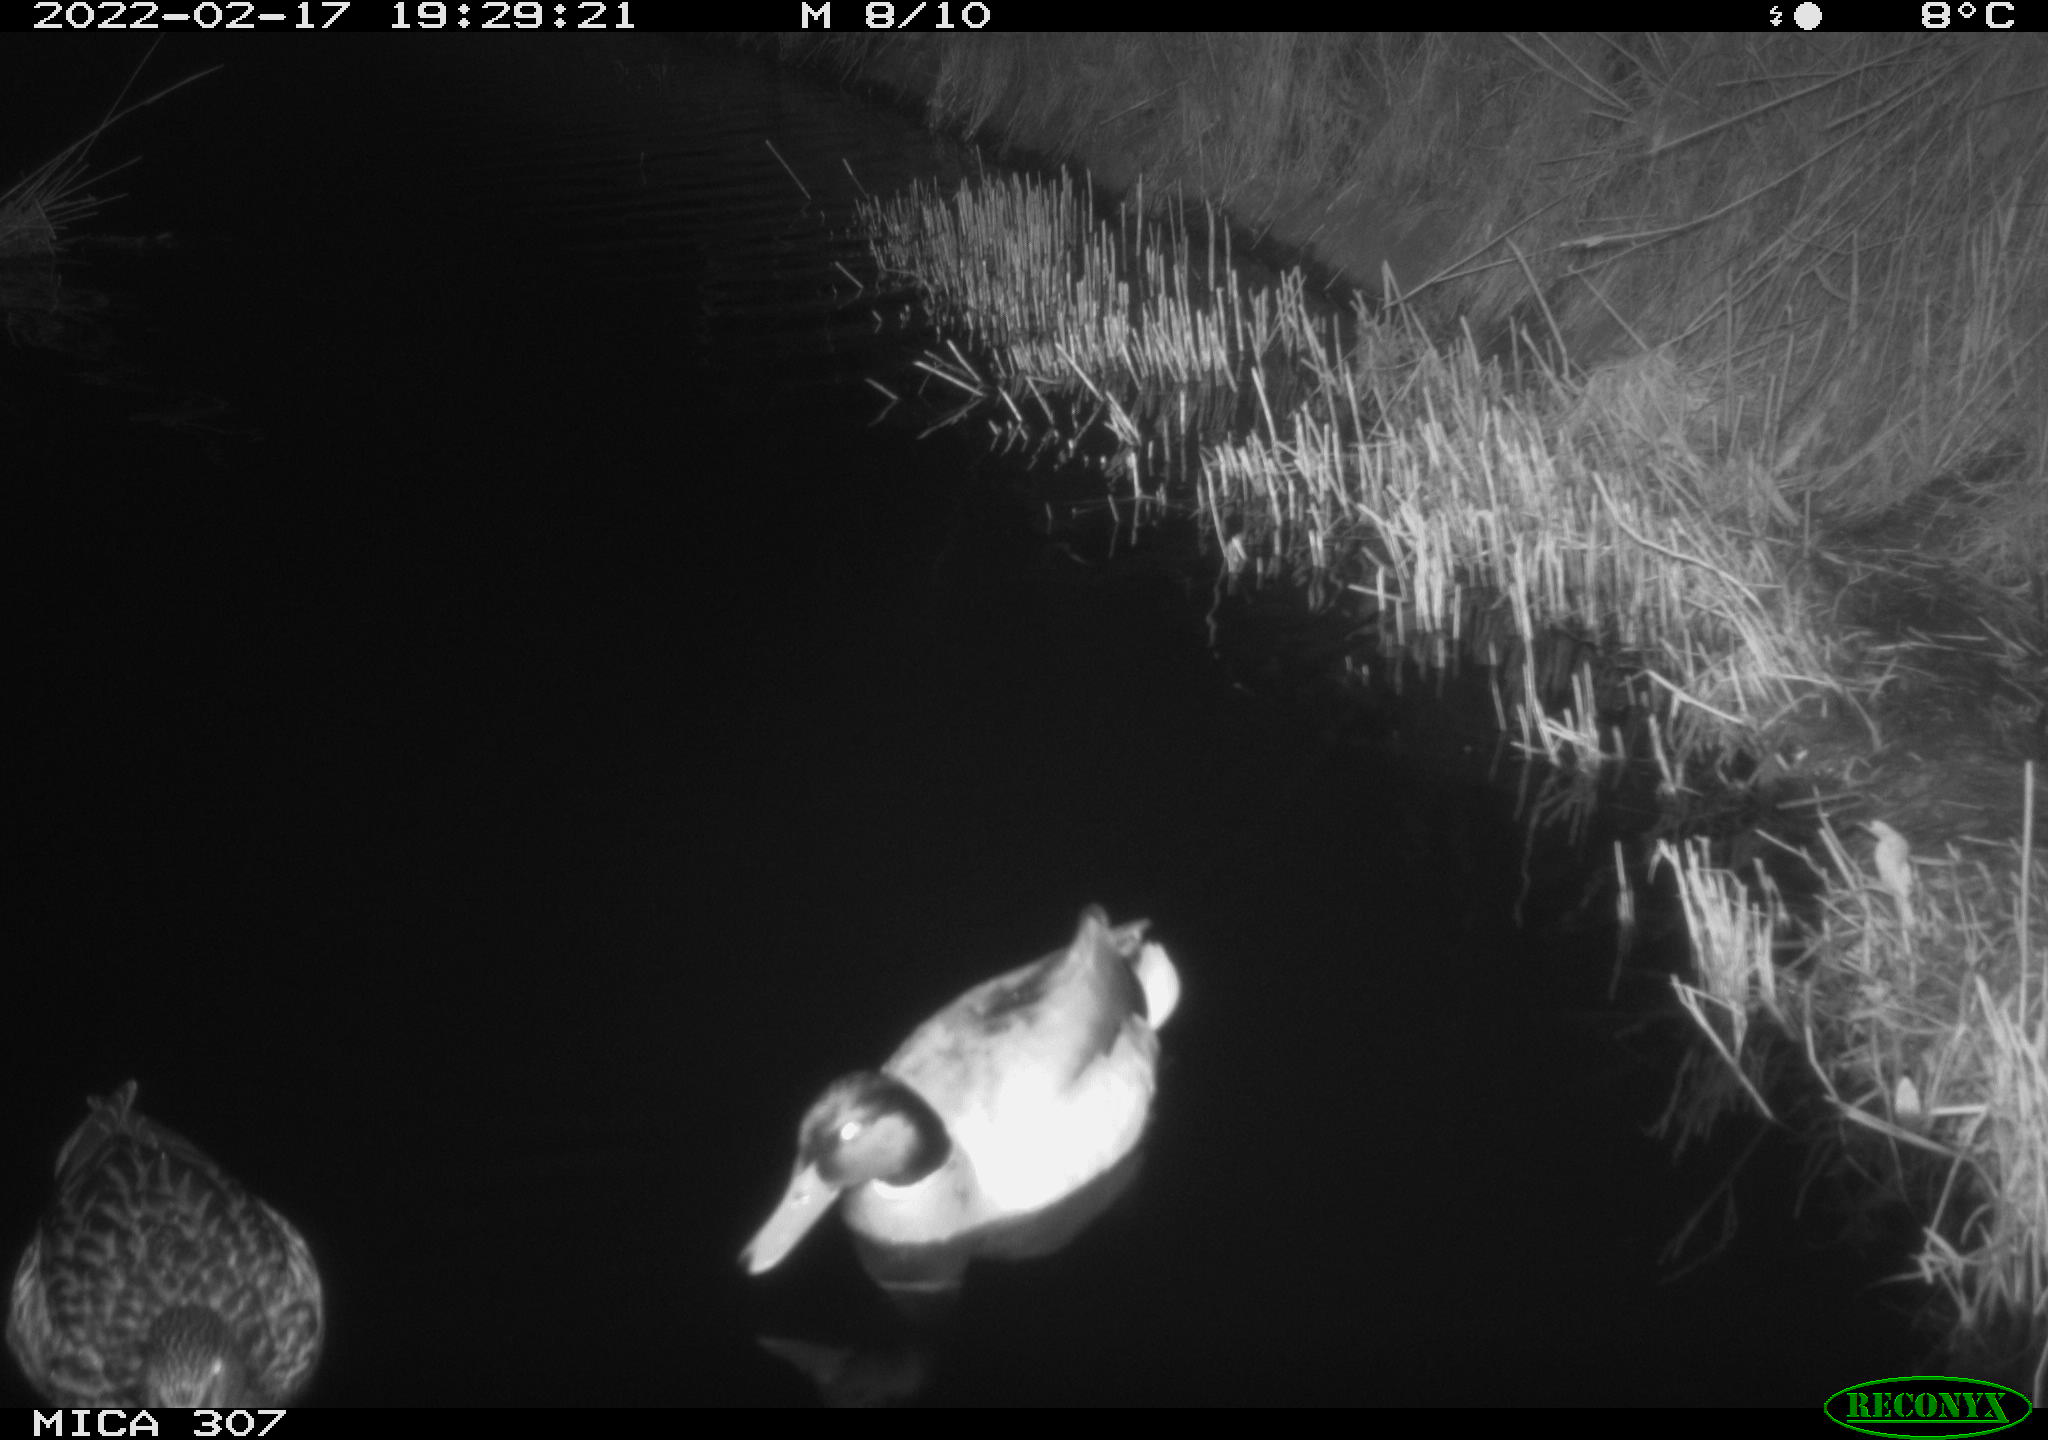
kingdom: Animalia
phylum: Chordata
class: Aves
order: Anseriformes
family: Anatidae
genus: Anas
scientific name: Anas platyrhynchos
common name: Mallard
